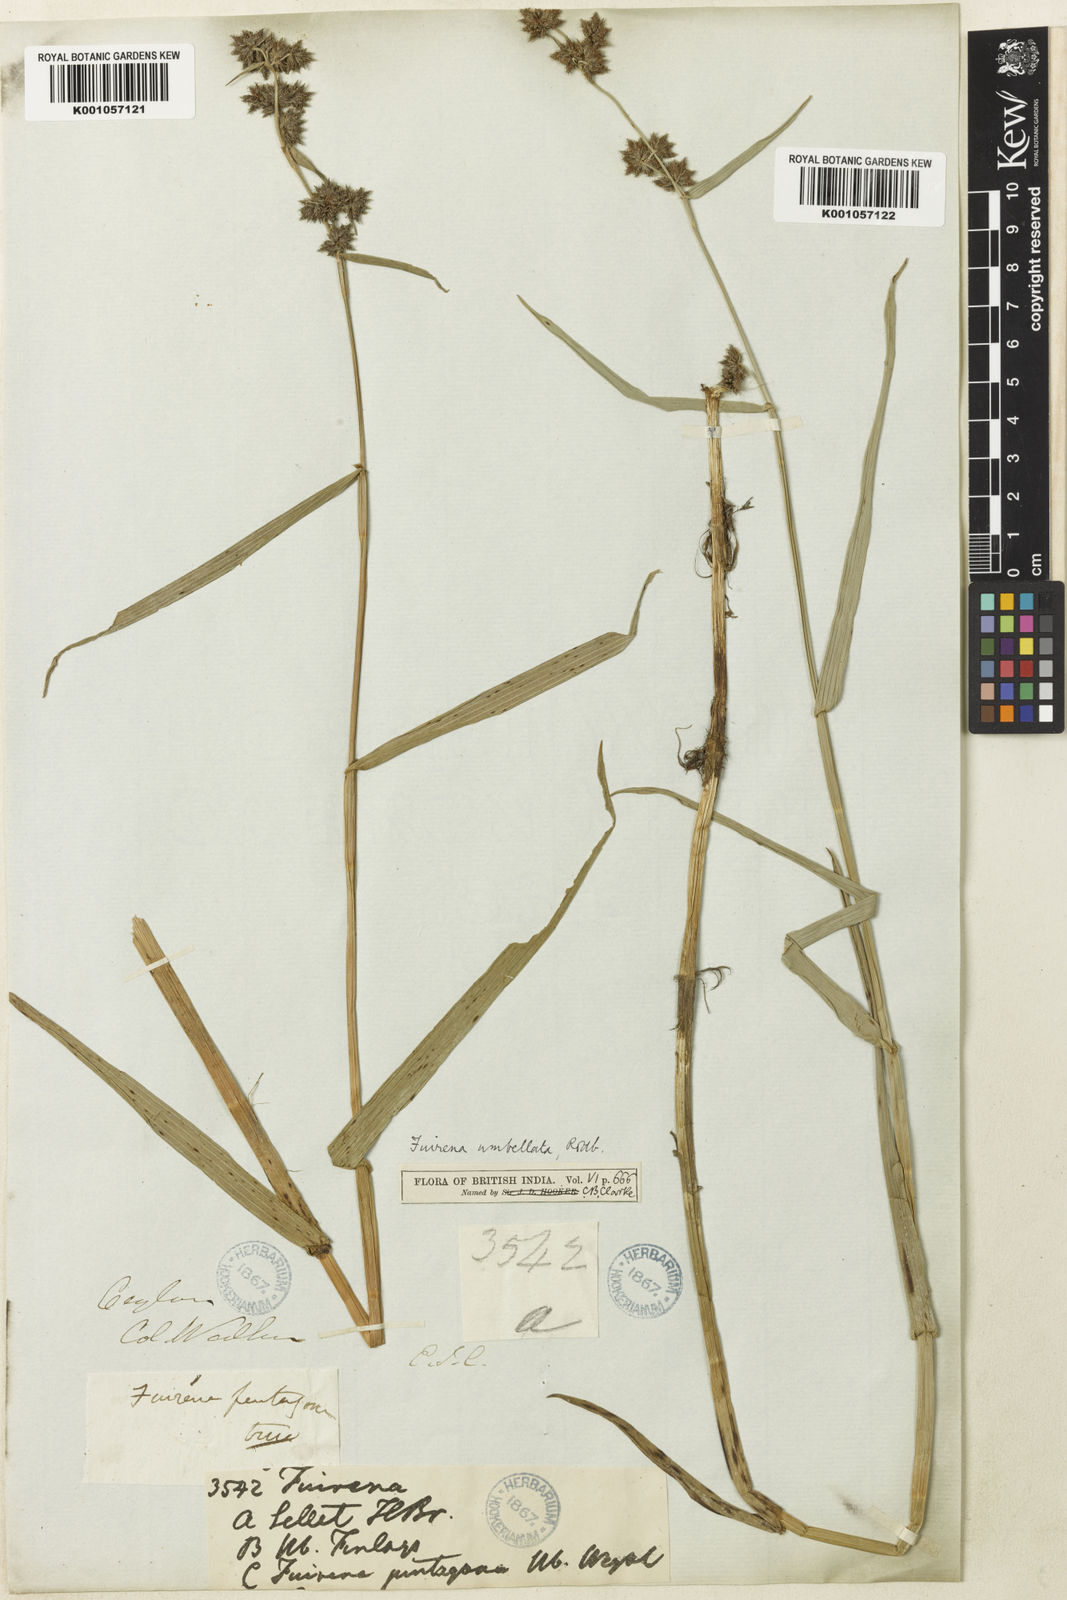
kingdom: Plantae
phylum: Tracheophyta
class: Liliopsida
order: Poales
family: Cyperaceae
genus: Fuirena
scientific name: Fuirena umbellata
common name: Yefen
